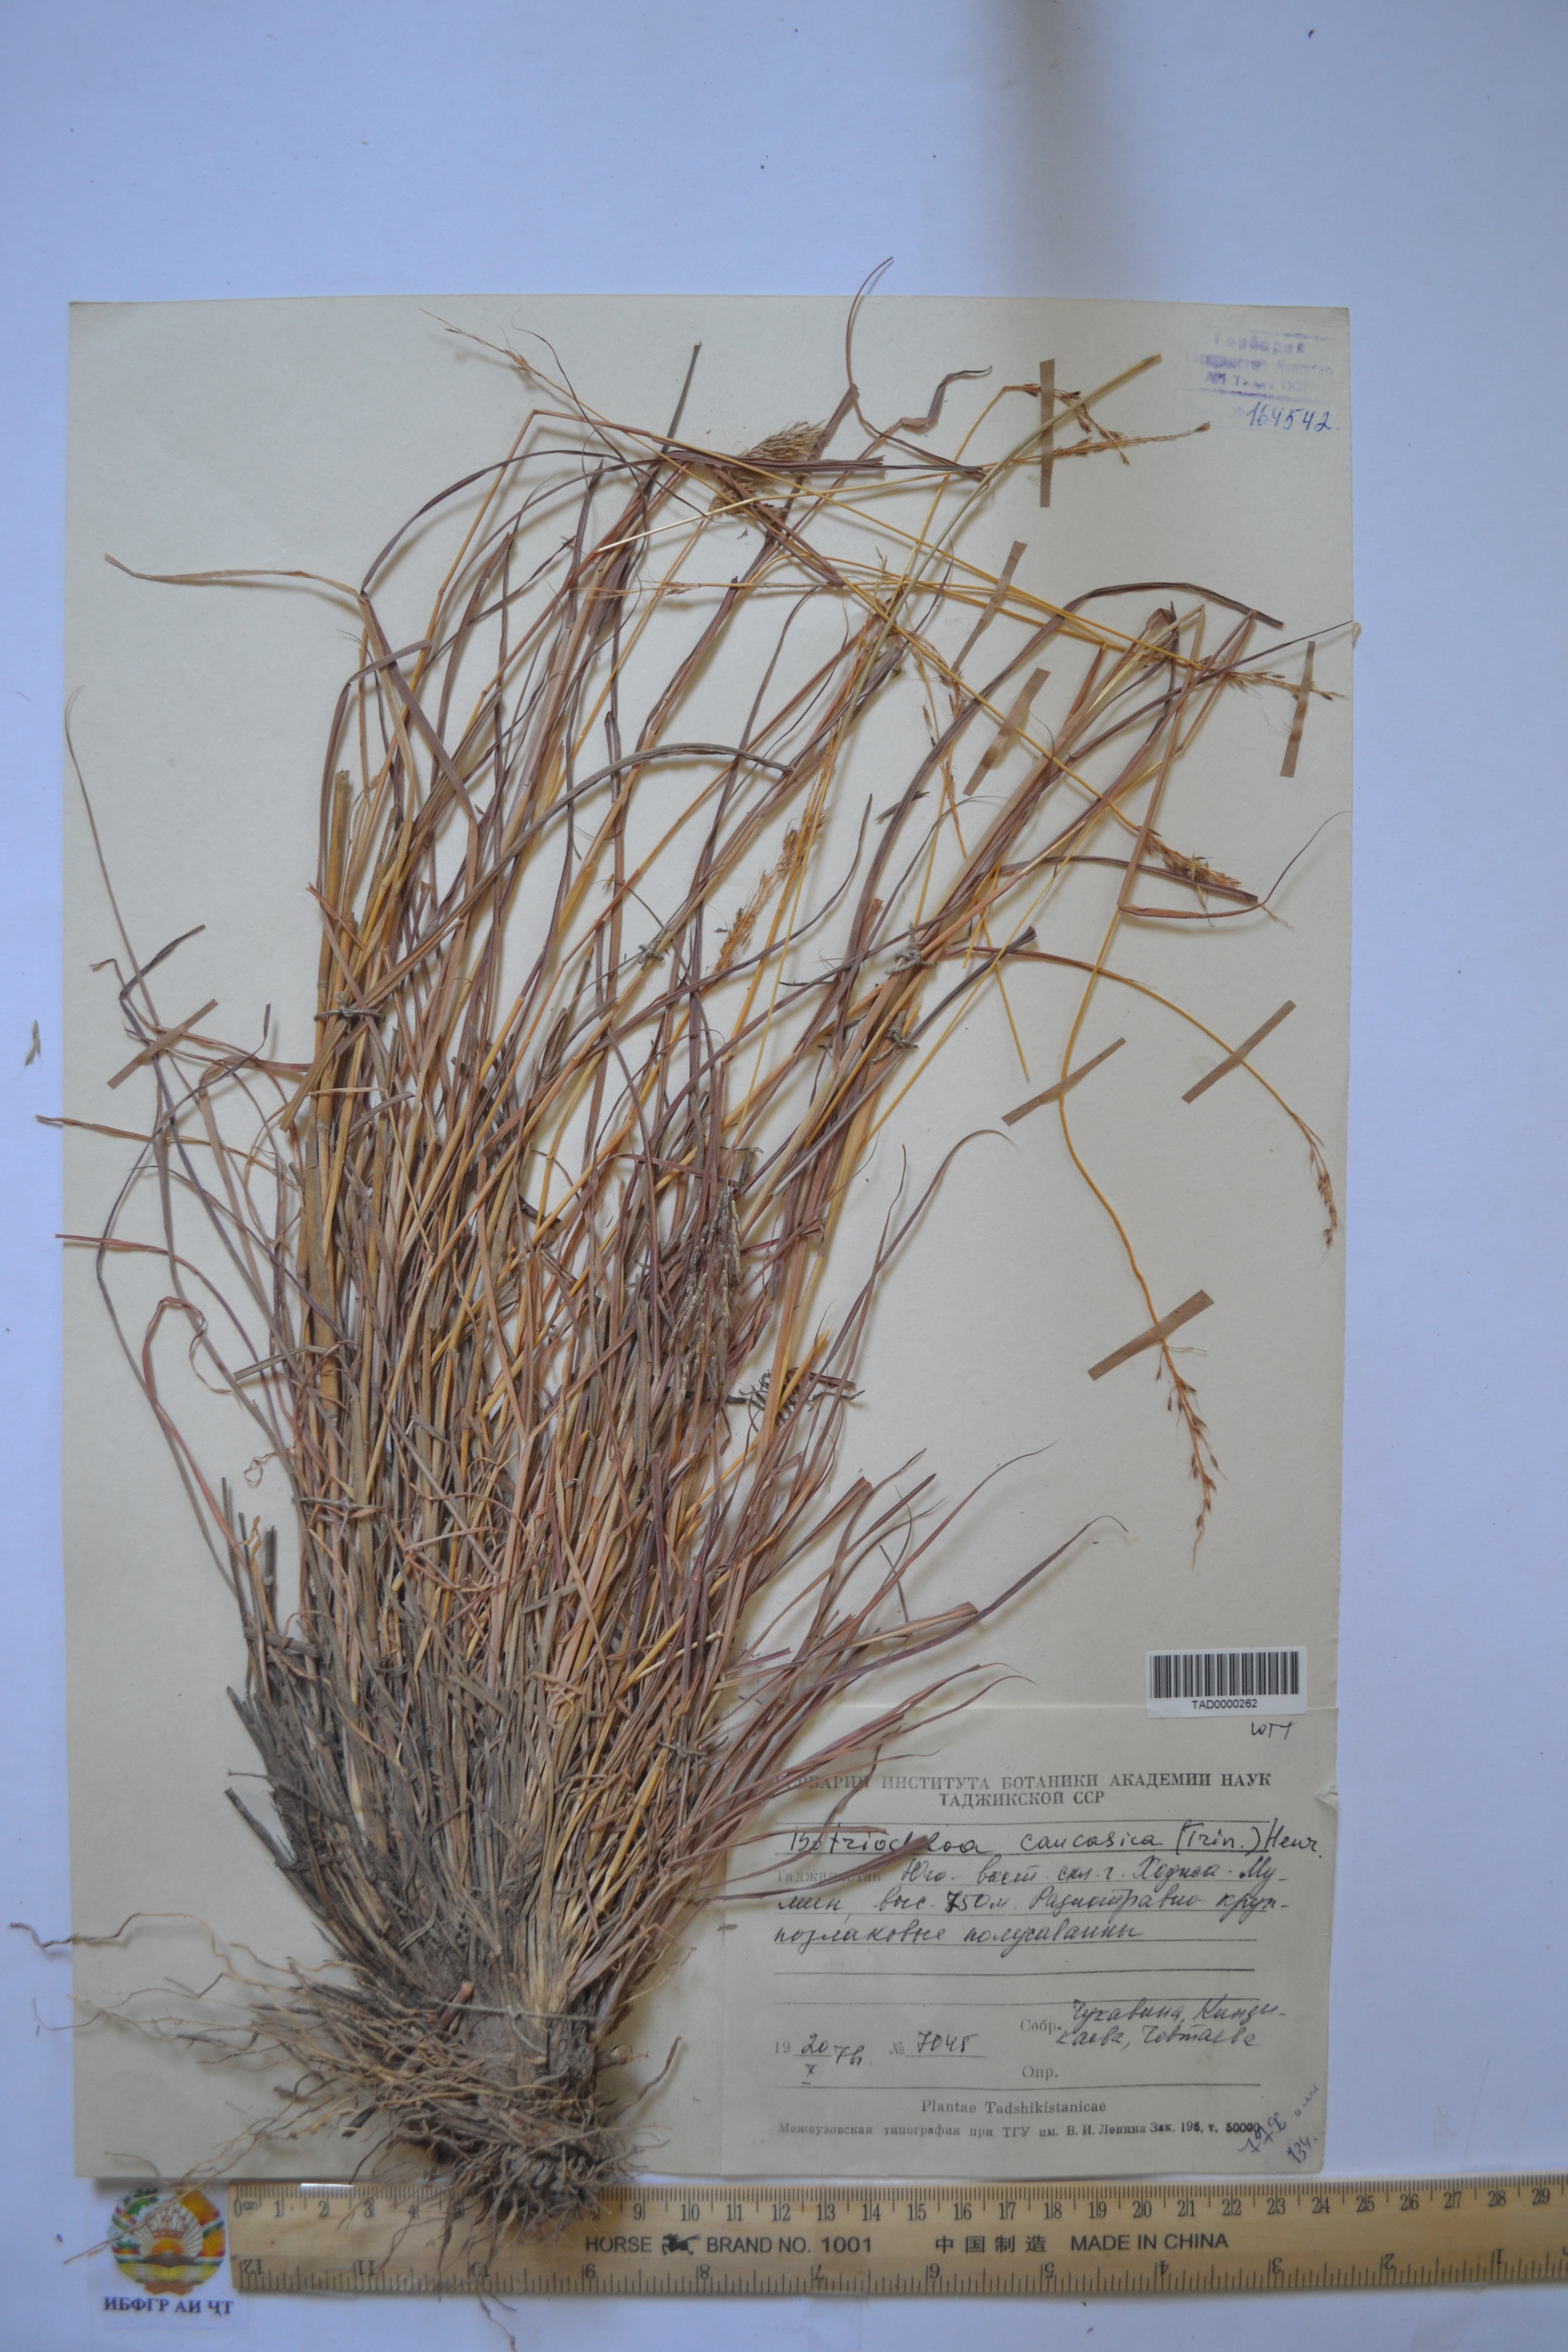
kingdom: Plantae
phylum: Tracheophyta
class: Liliopsida
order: Poales
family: Poaceae
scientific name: Poaceae
